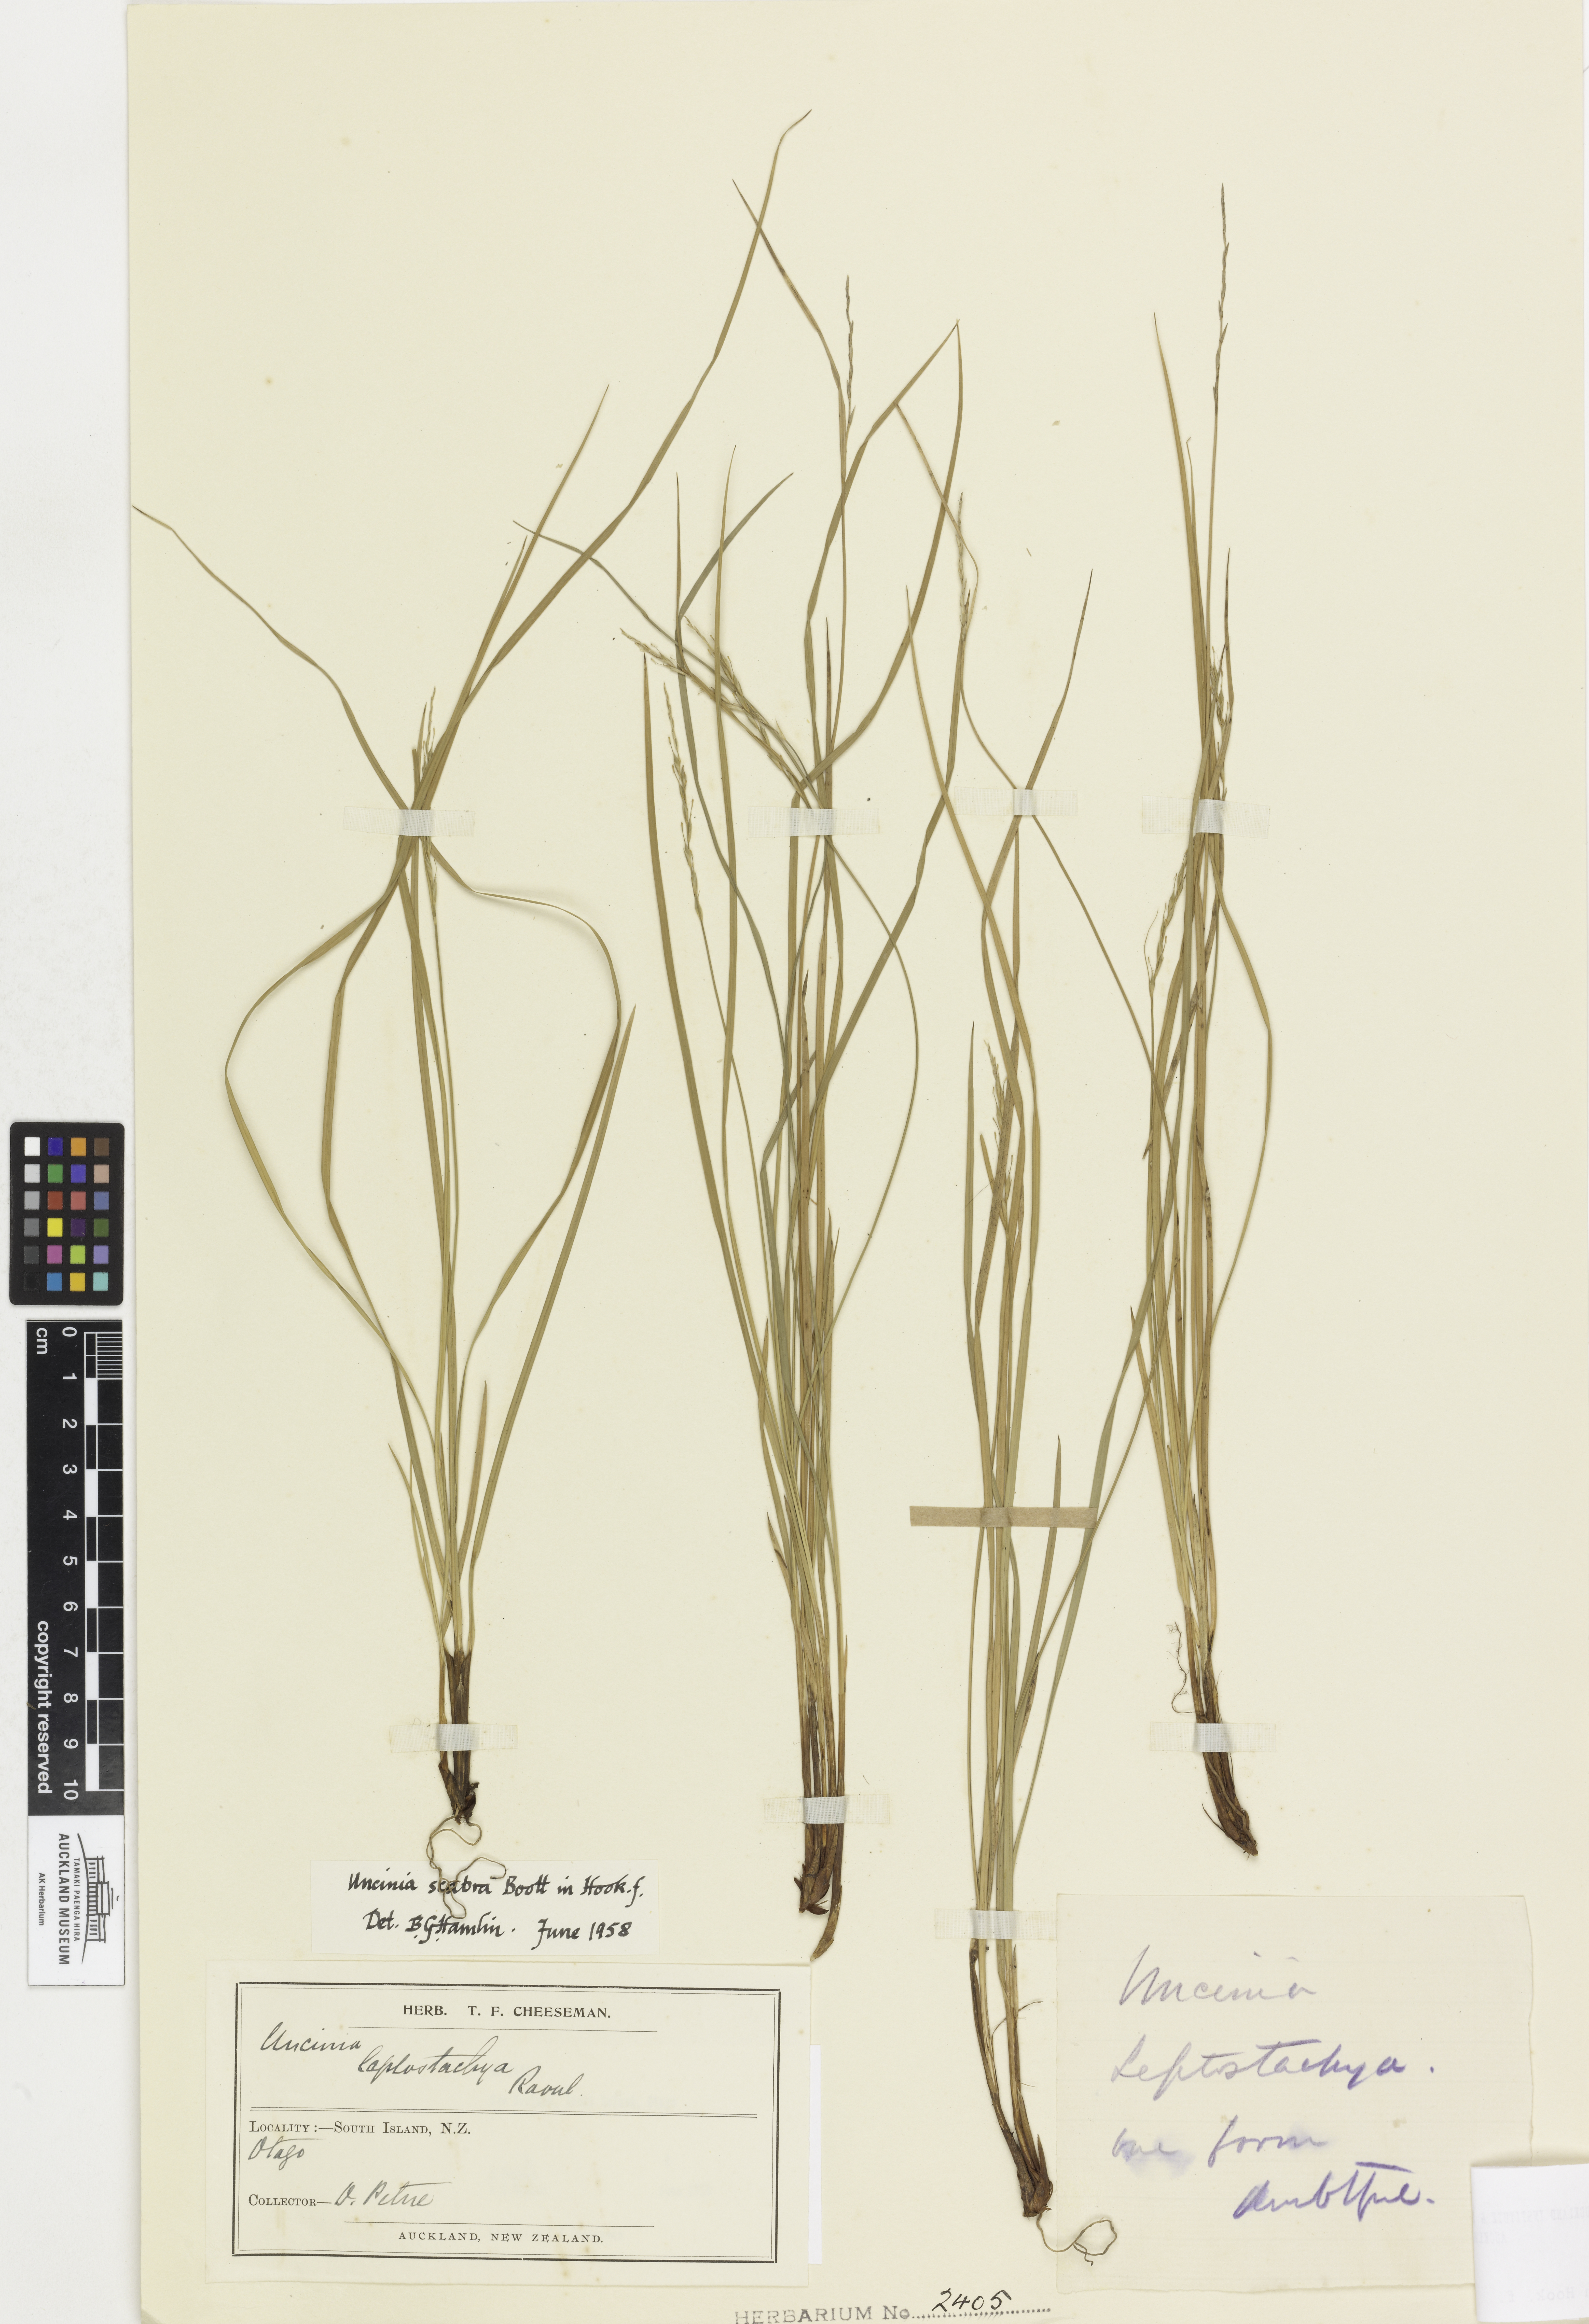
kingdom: Plantae
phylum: Tracheophyta
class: Liliopsida
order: Poales
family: Cyperaceae
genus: Carex
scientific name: Carex healyi
